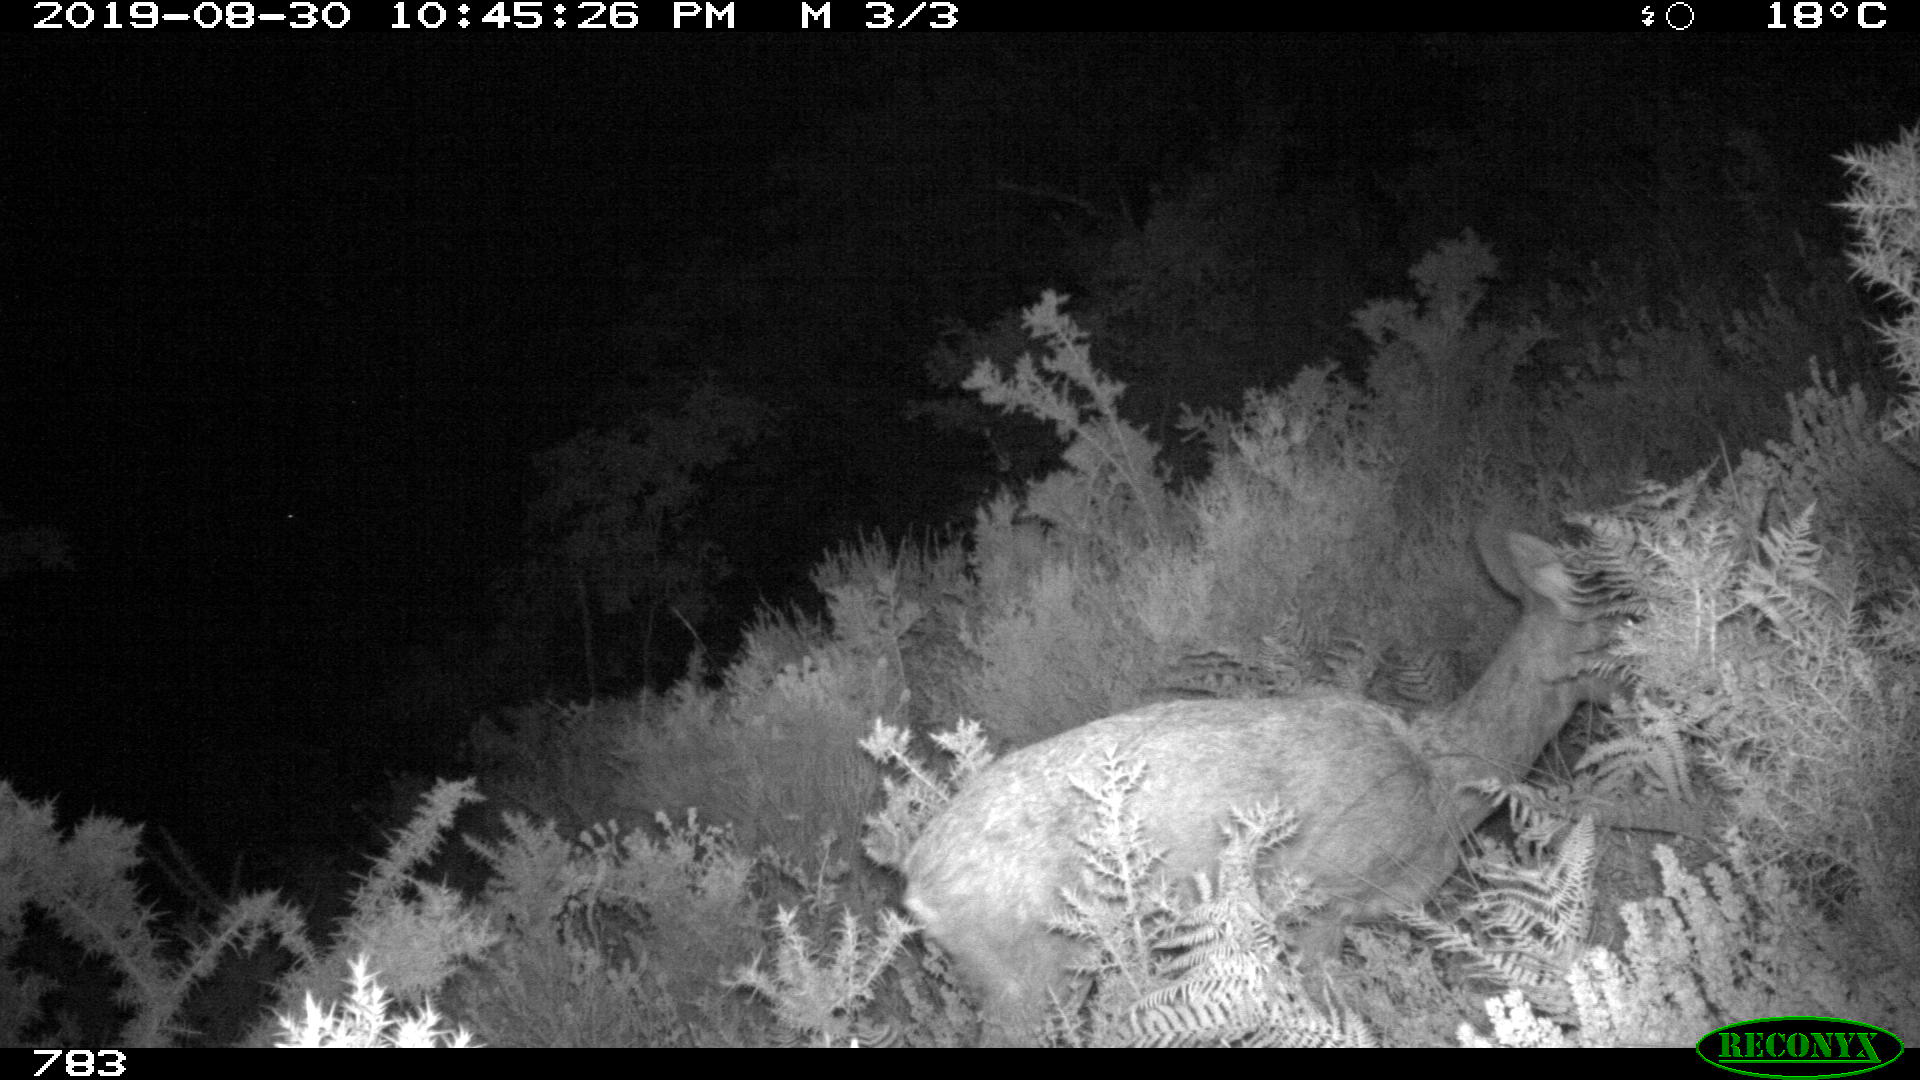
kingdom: Animalia
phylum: Chordata
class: Mammalia
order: Artiodactyla
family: Cervidae
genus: Capreolus
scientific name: Capreolus capreolus
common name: Western roe deer
